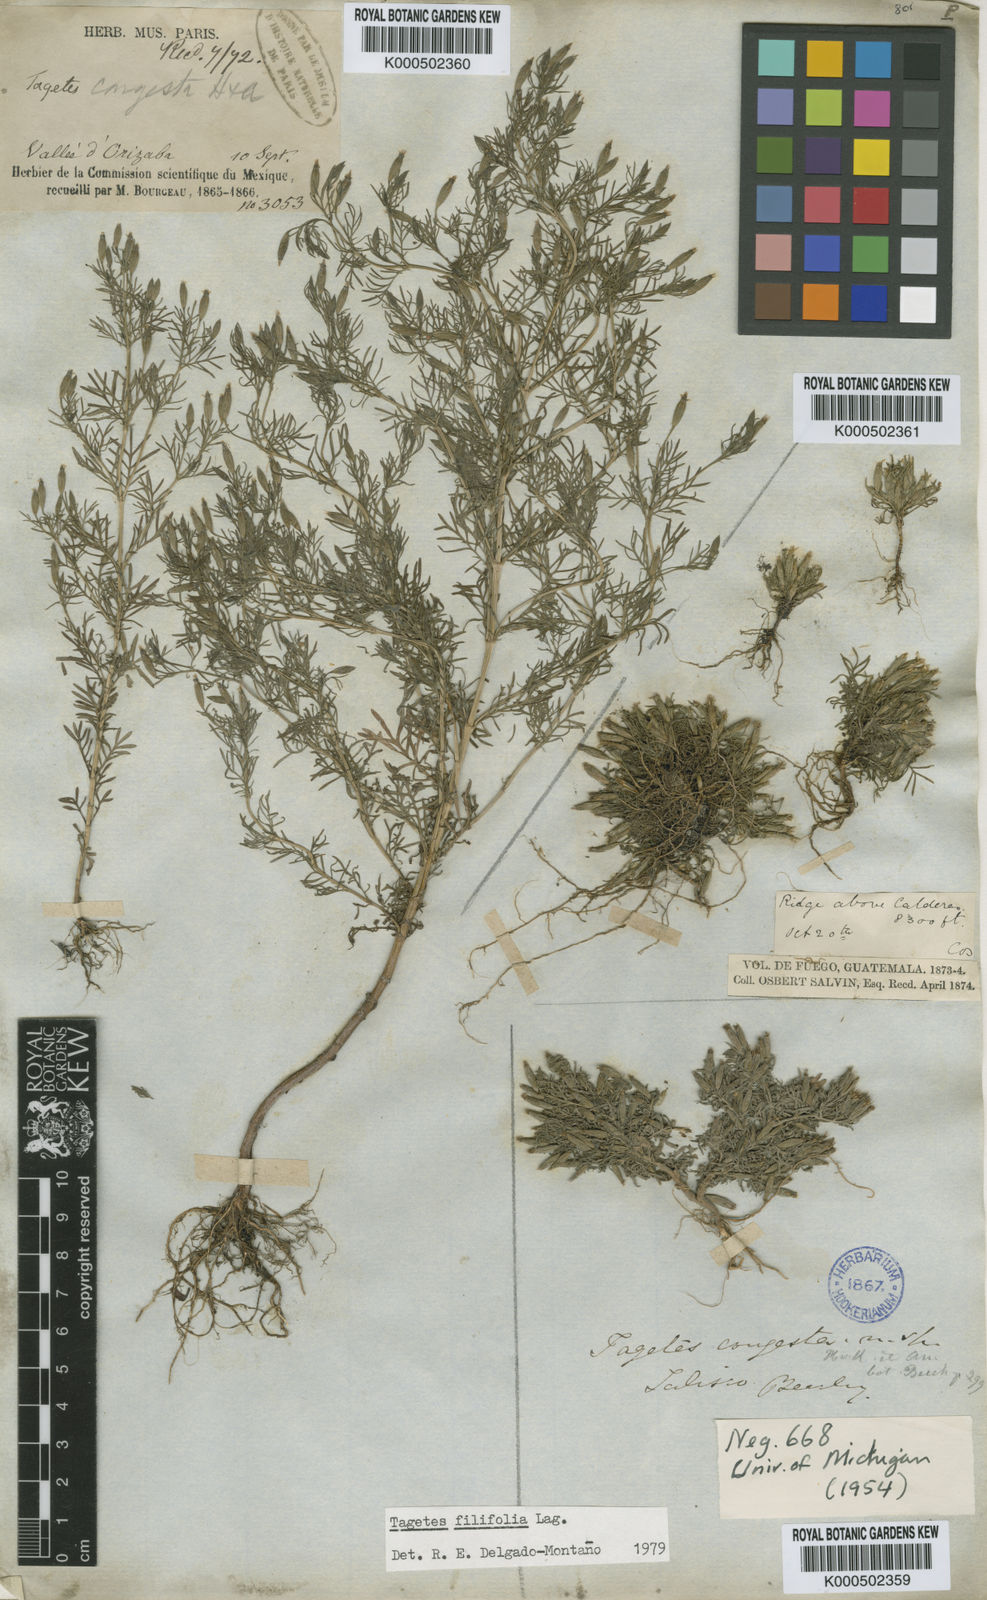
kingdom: Plantae
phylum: Tracheophyta
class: Magnoliopsida
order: Asterales
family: Asteraceae
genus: Tagetes
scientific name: Tagetes filifolia
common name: Lesser marigold
